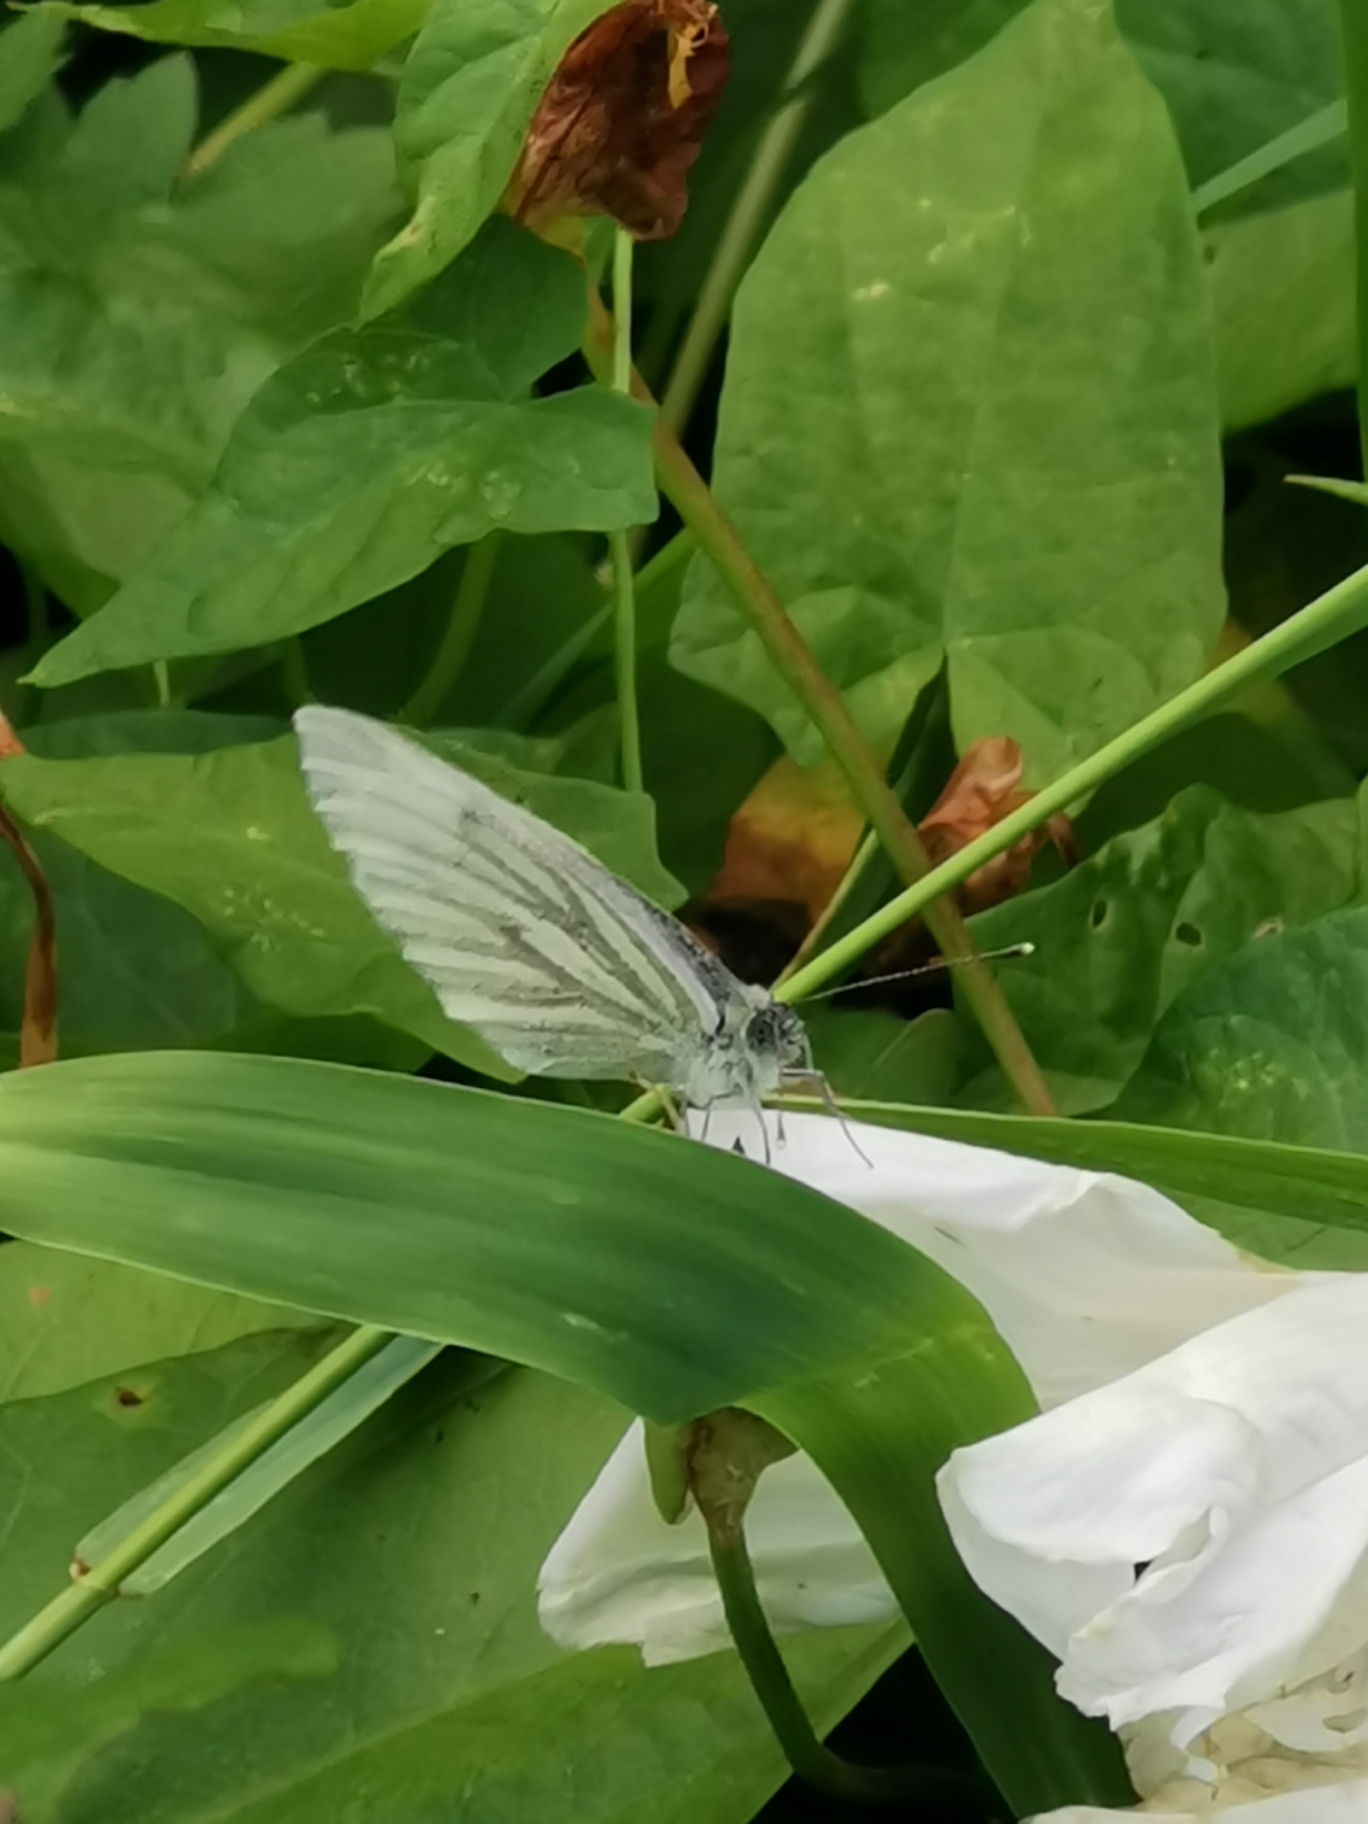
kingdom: Animalia
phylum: Arthropoda
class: Insecta
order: Lepidoptera
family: Pieridae
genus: Pieris
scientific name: Pieris napi
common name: Grønåret kålsommerfugl
